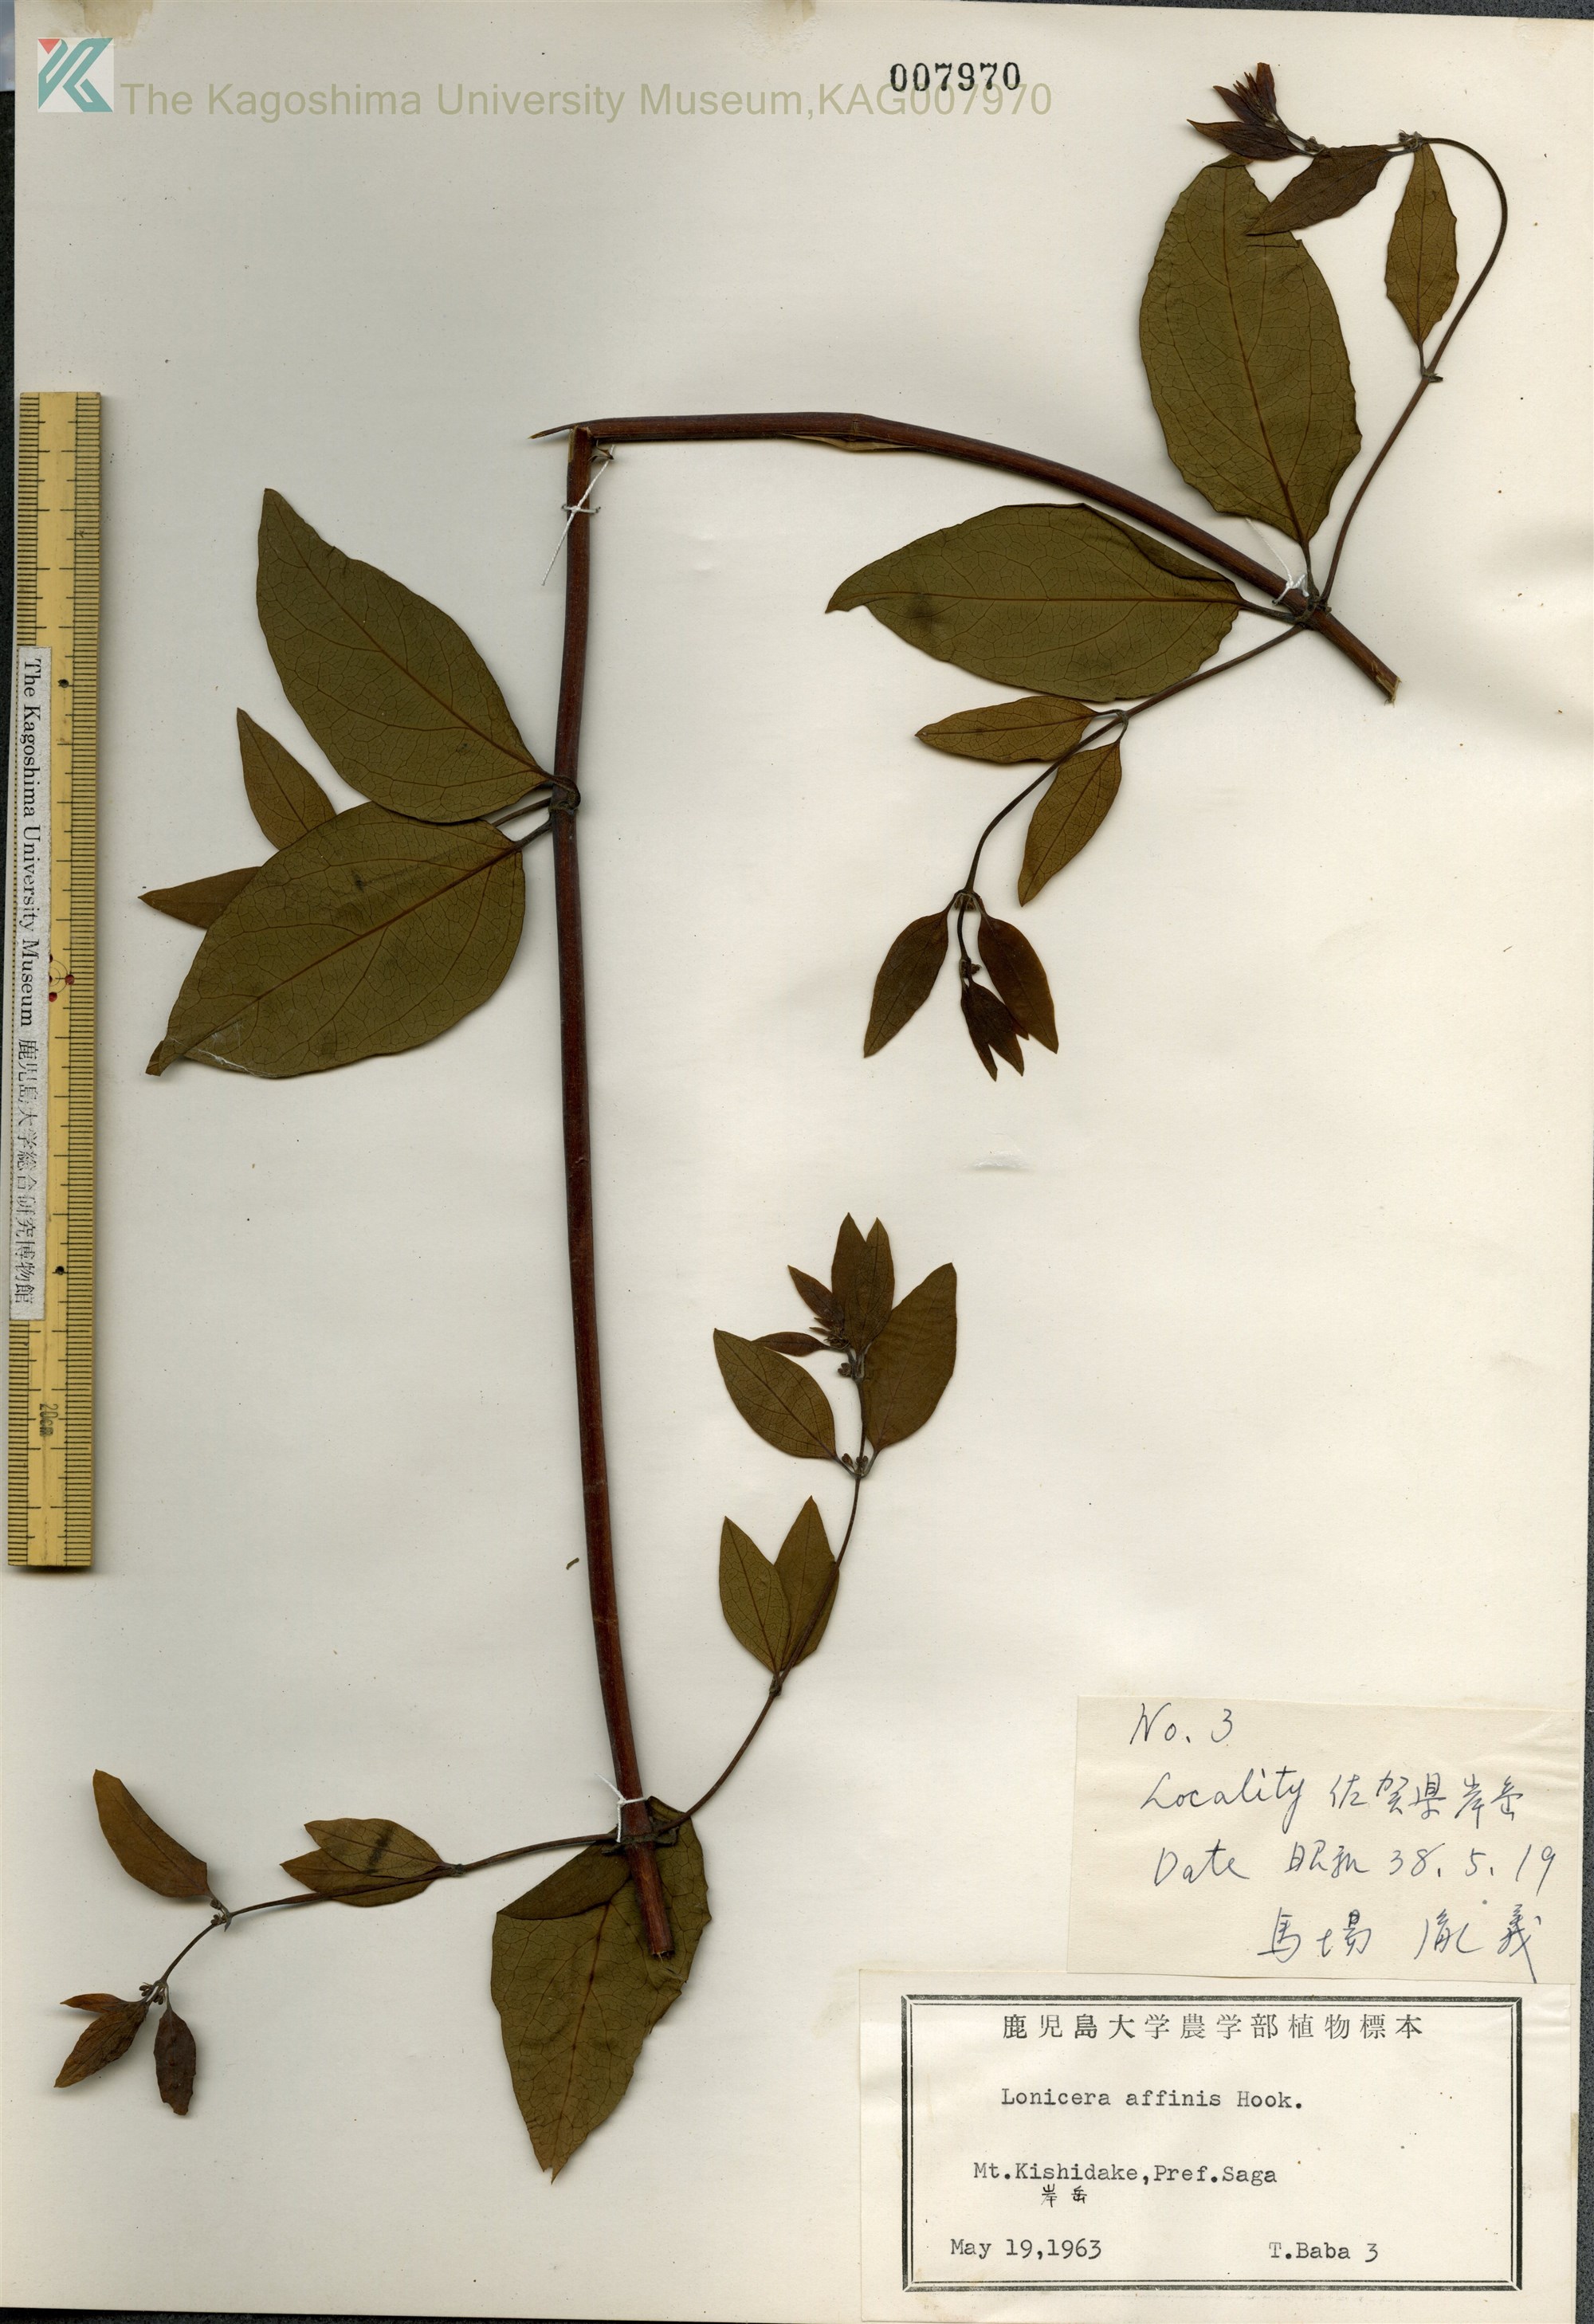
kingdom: Plantae
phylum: Tracheophyta
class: Magnoliopsida
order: Dipsacales
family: Caprifoliaceae
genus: Lonicera
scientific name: Lonicera affinis
